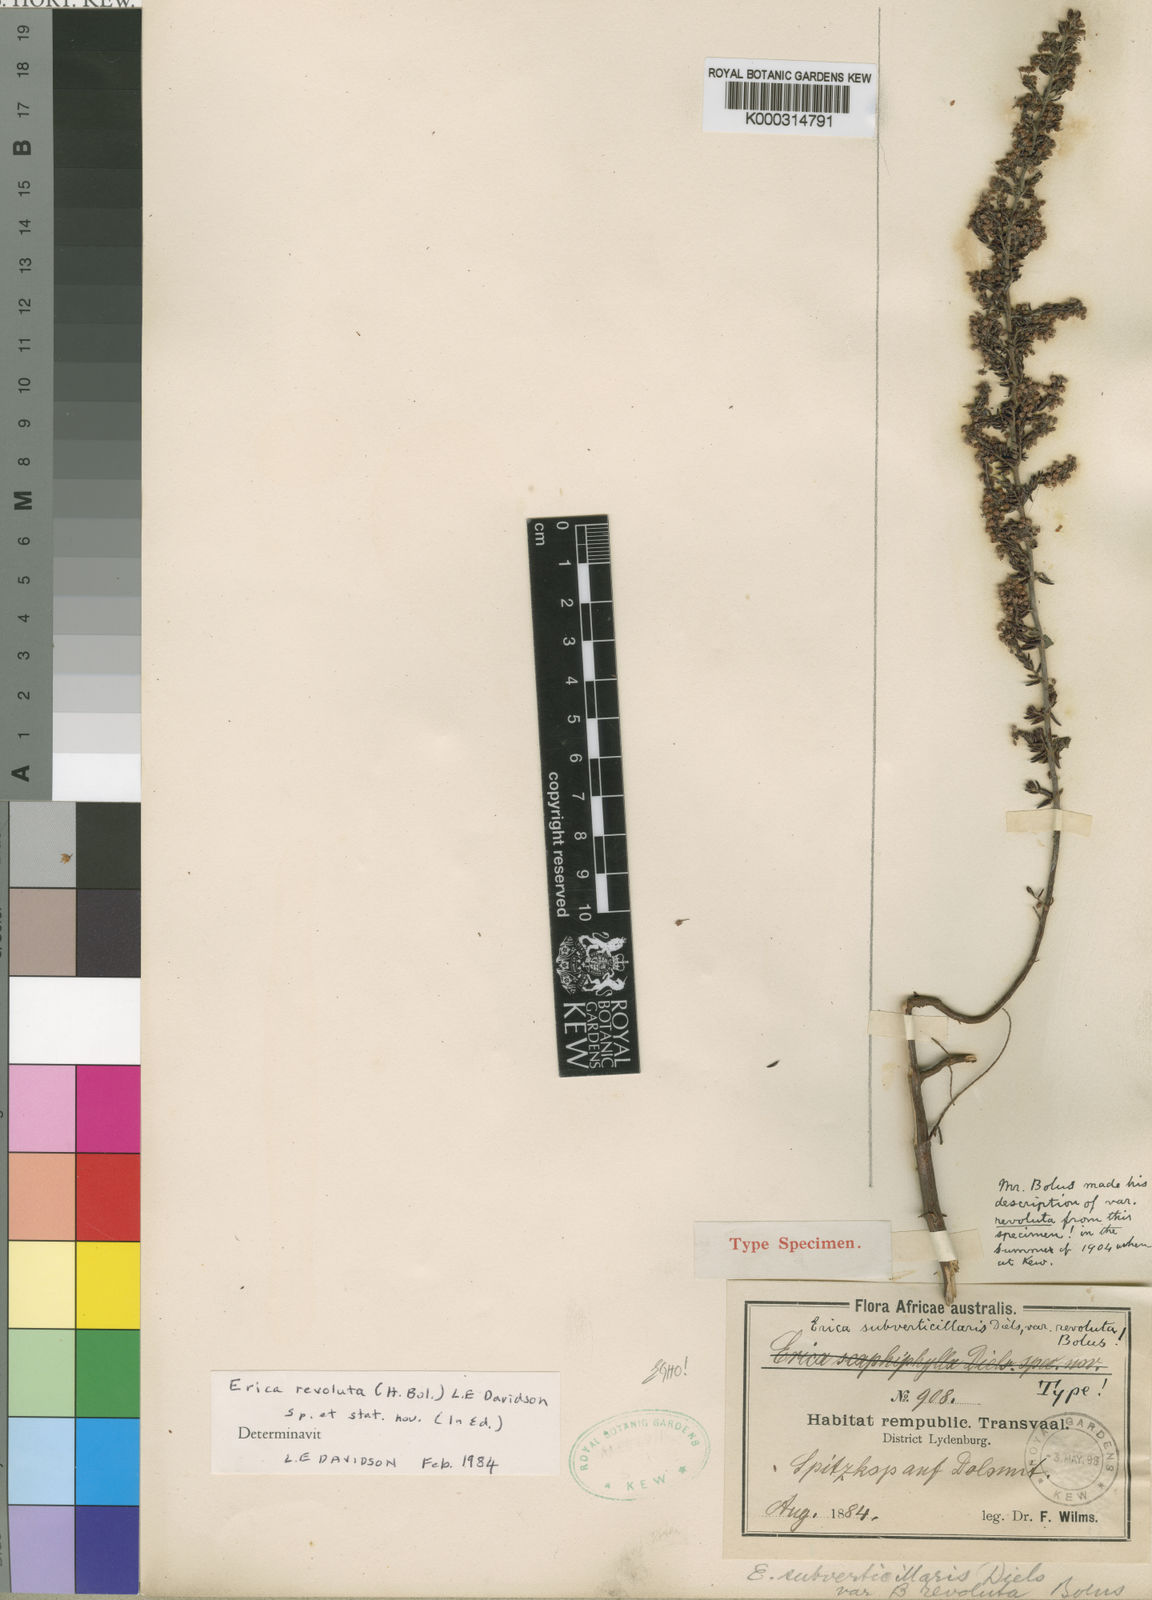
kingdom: Plantae
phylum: Tracheophyta
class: Magnoliopsida
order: Ericales
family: Ericaceae
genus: Erica
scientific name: Erica subverticillaris
